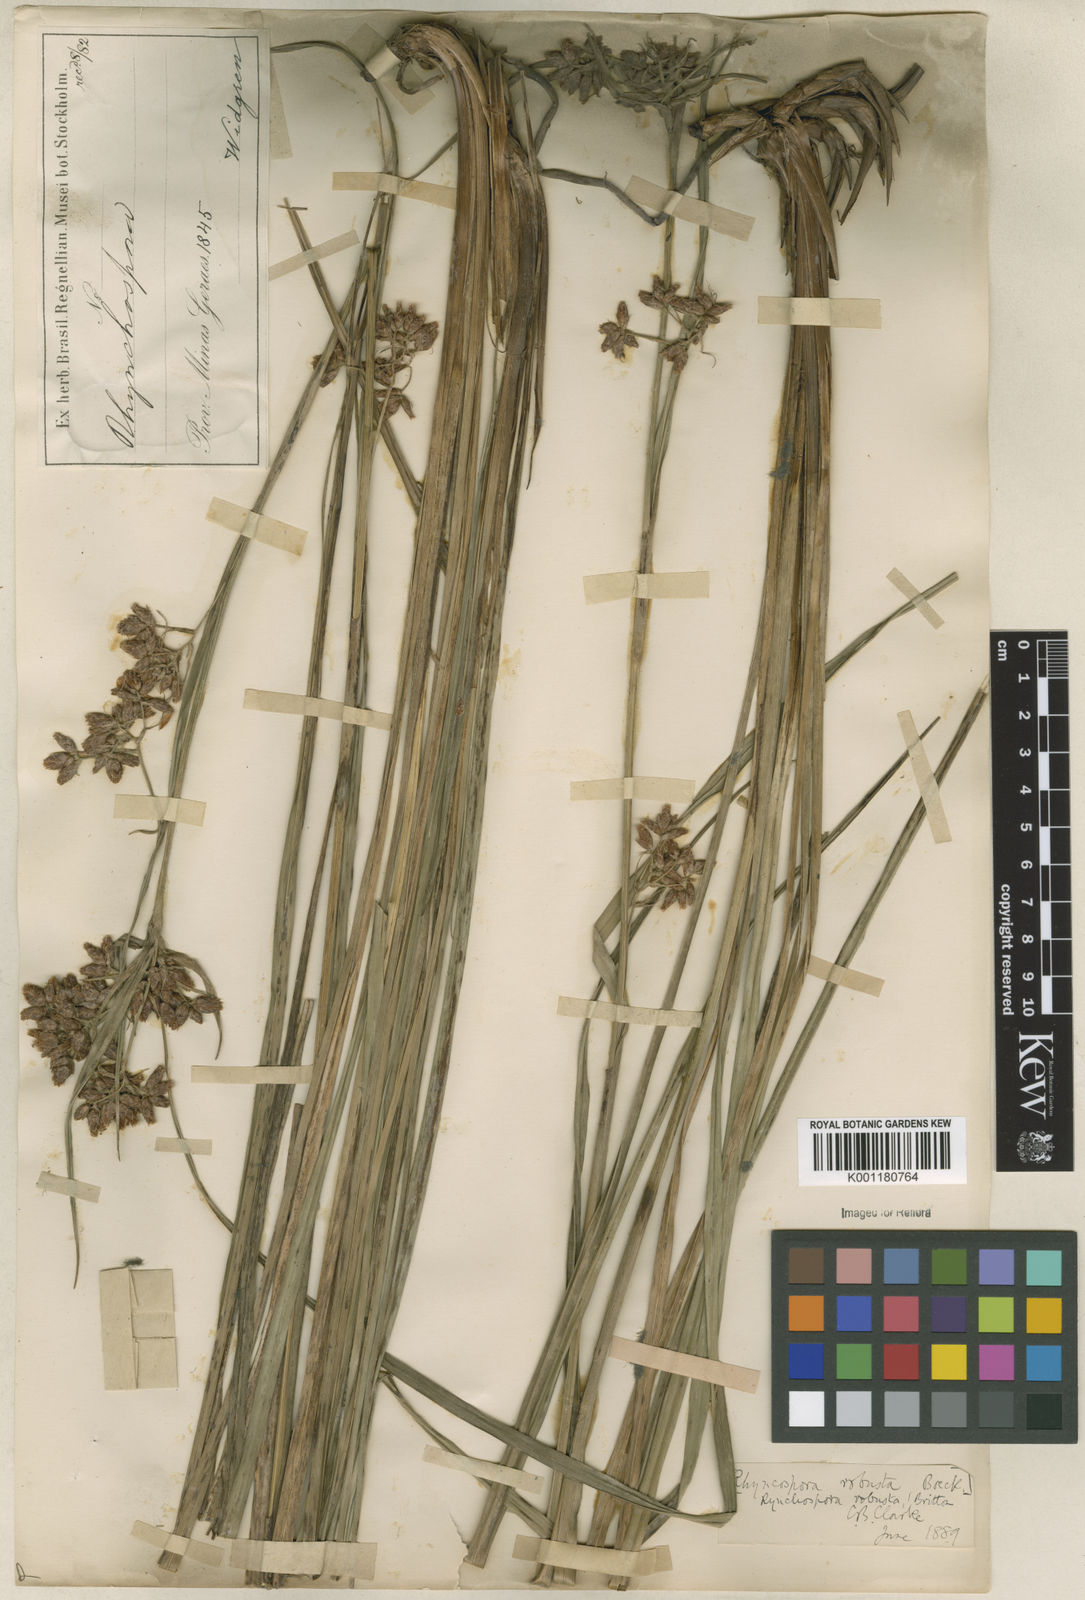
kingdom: Plantae
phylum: Tracheophyta
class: Liliopsida
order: Poales
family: Cyperaceae
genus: Rhynchospora
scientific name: Rhynchospora robusta
